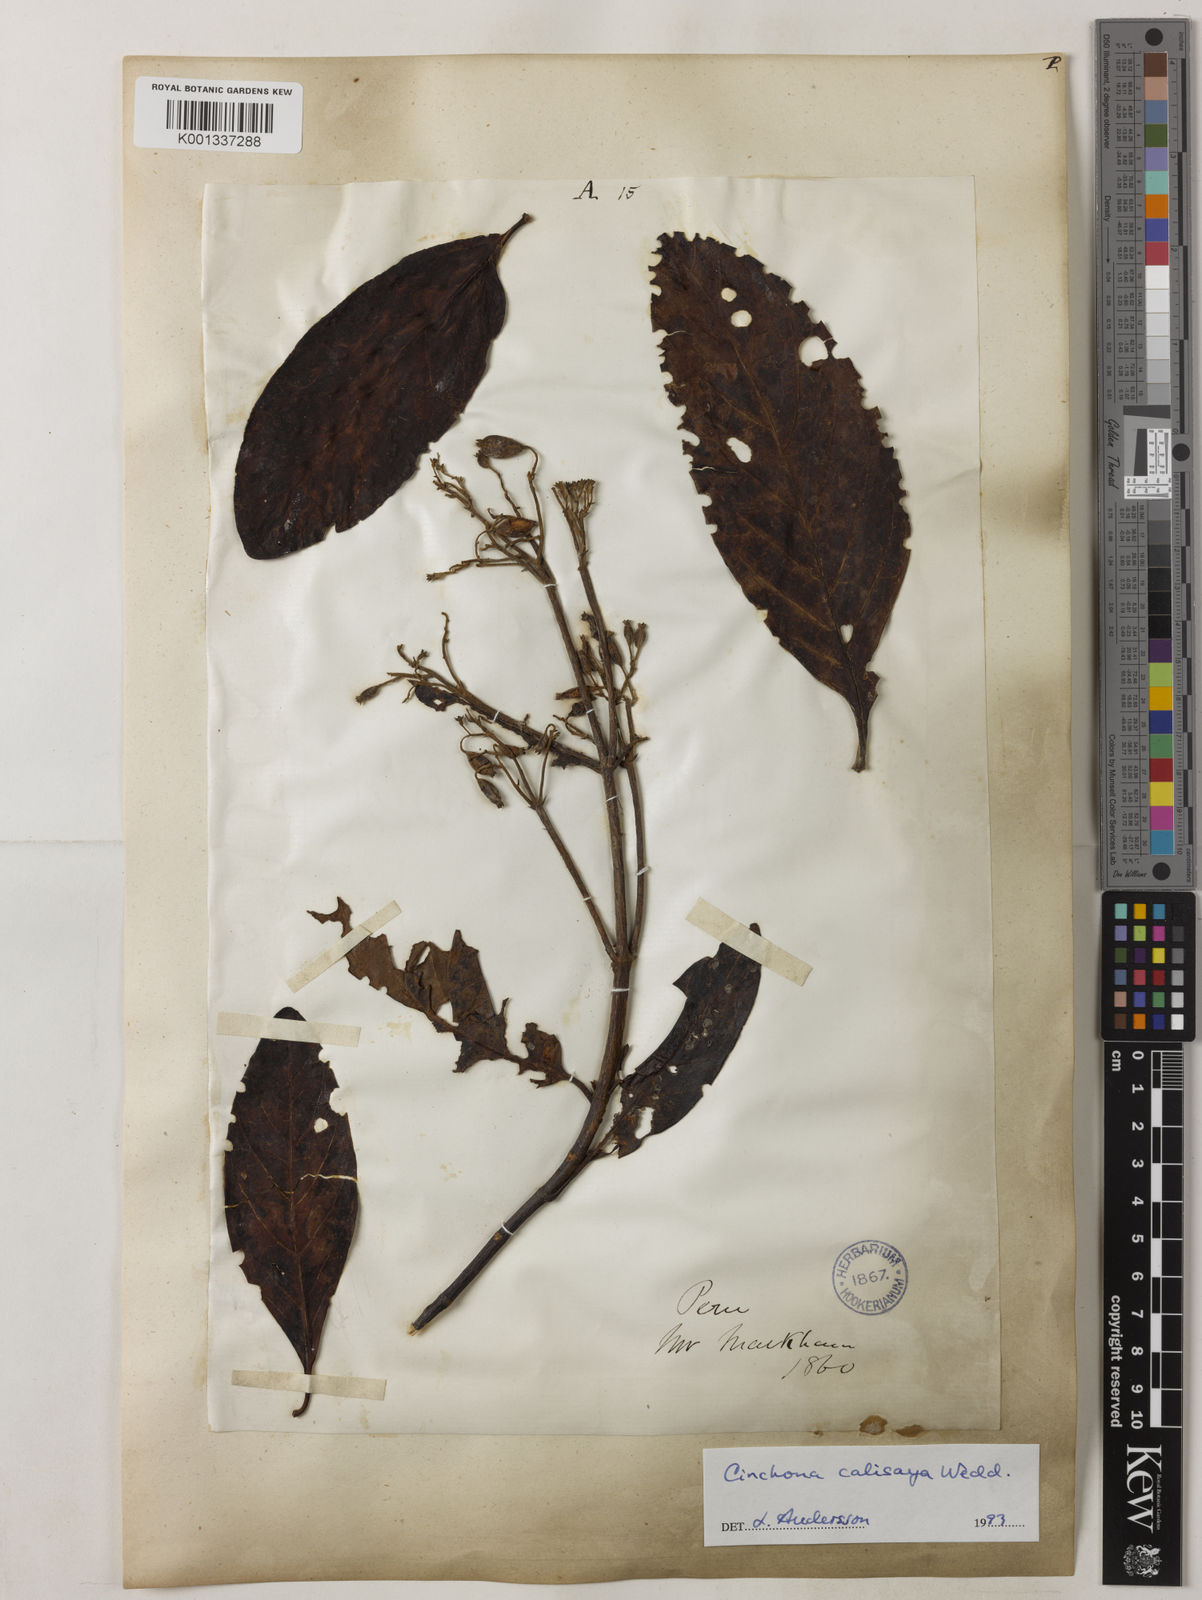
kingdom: Plantae
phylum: Tracheophyta
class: Magnoliopsida
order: Gentianales
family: Rubiaceae
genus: Cinchona
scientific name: Cinchona calisaya
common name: Ledgerbark
